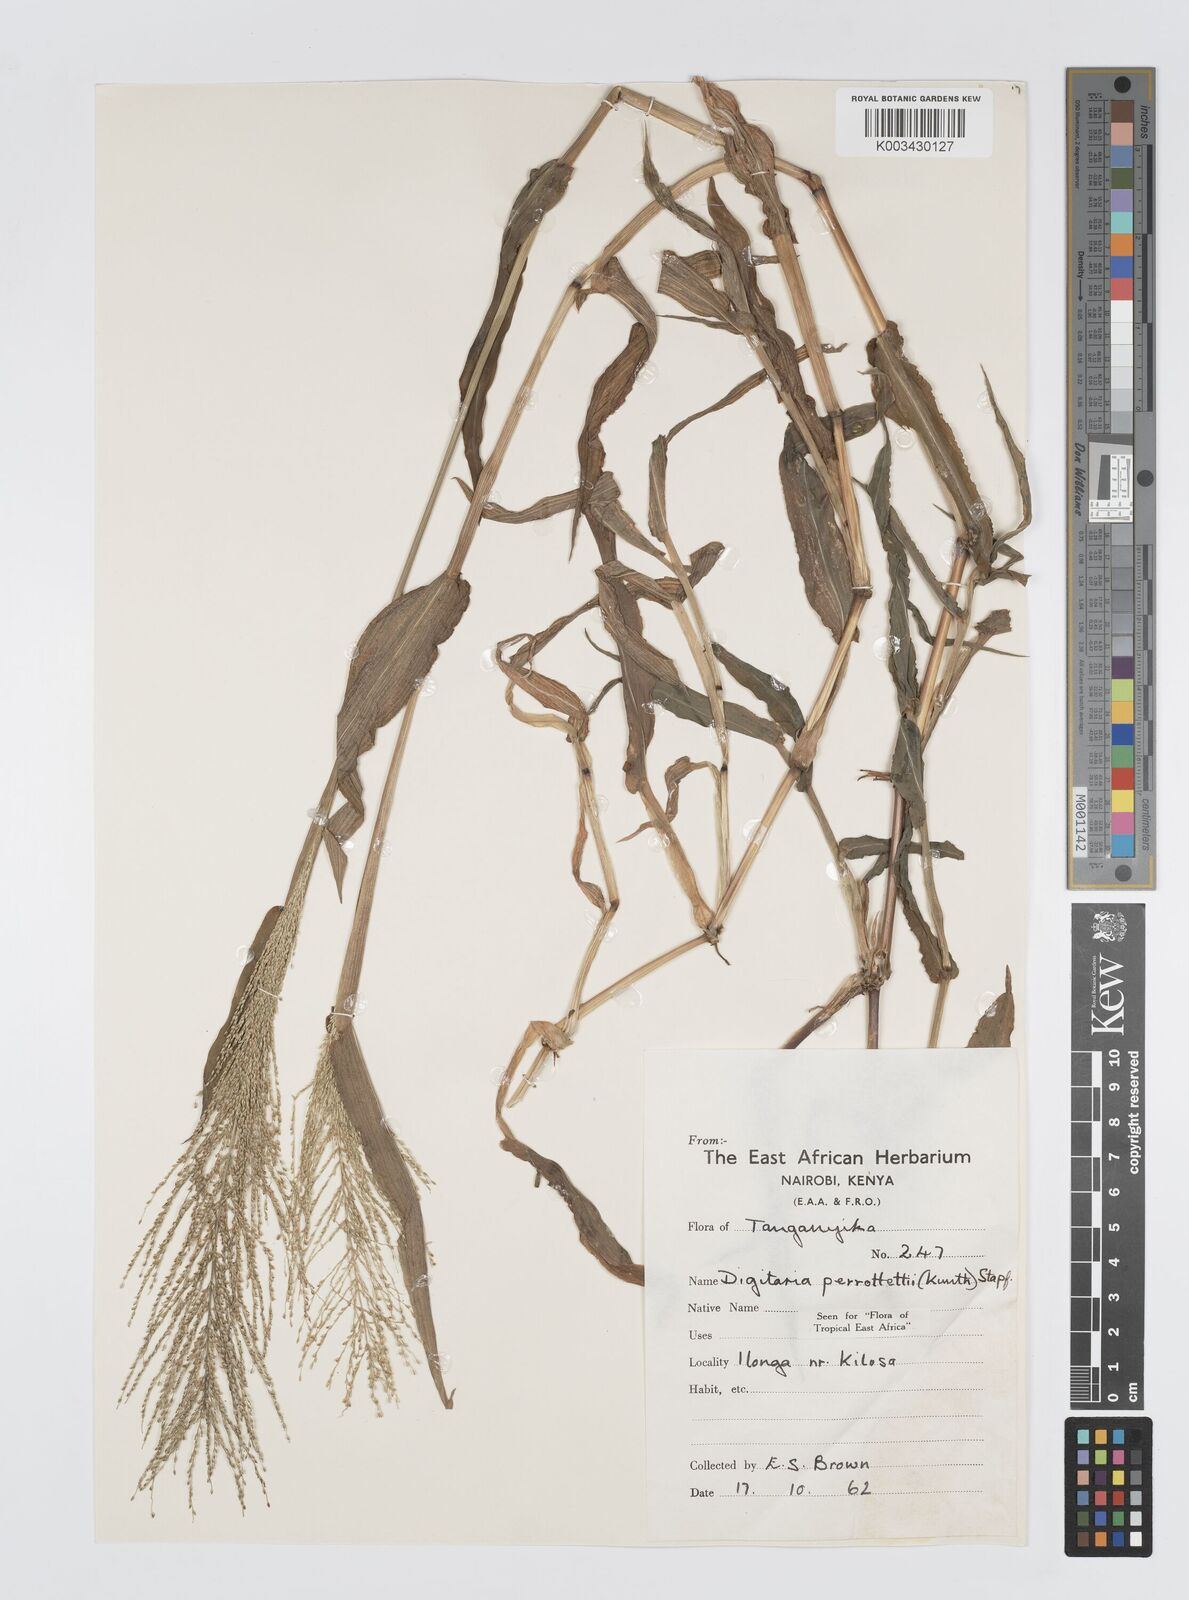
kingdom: Plantae
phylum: Tracheophyta
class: Liliopsida
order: Poales
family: Poaceae
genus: Digitaria
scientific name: Digitaria perrottetii
